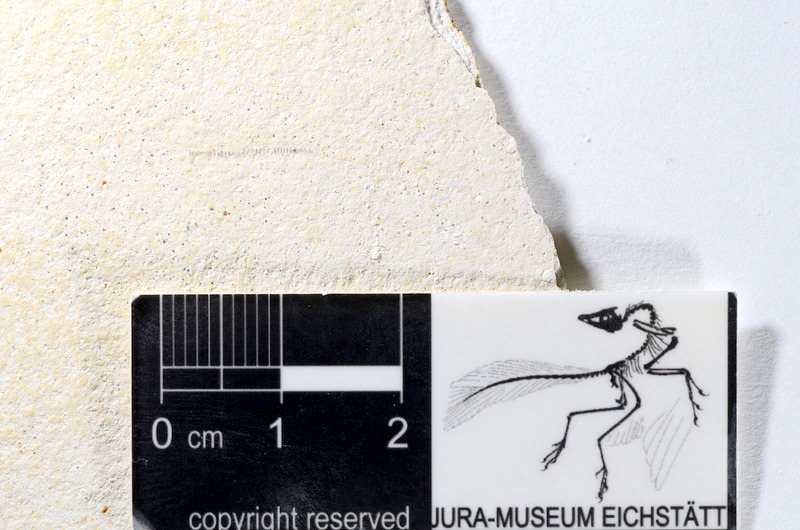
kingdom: Animalia
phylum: Chordata
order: Salmoniformes
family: Orthogonikleithridae
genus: Orthogonikleithrus
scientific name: Orthogonikleithrus hoelli
